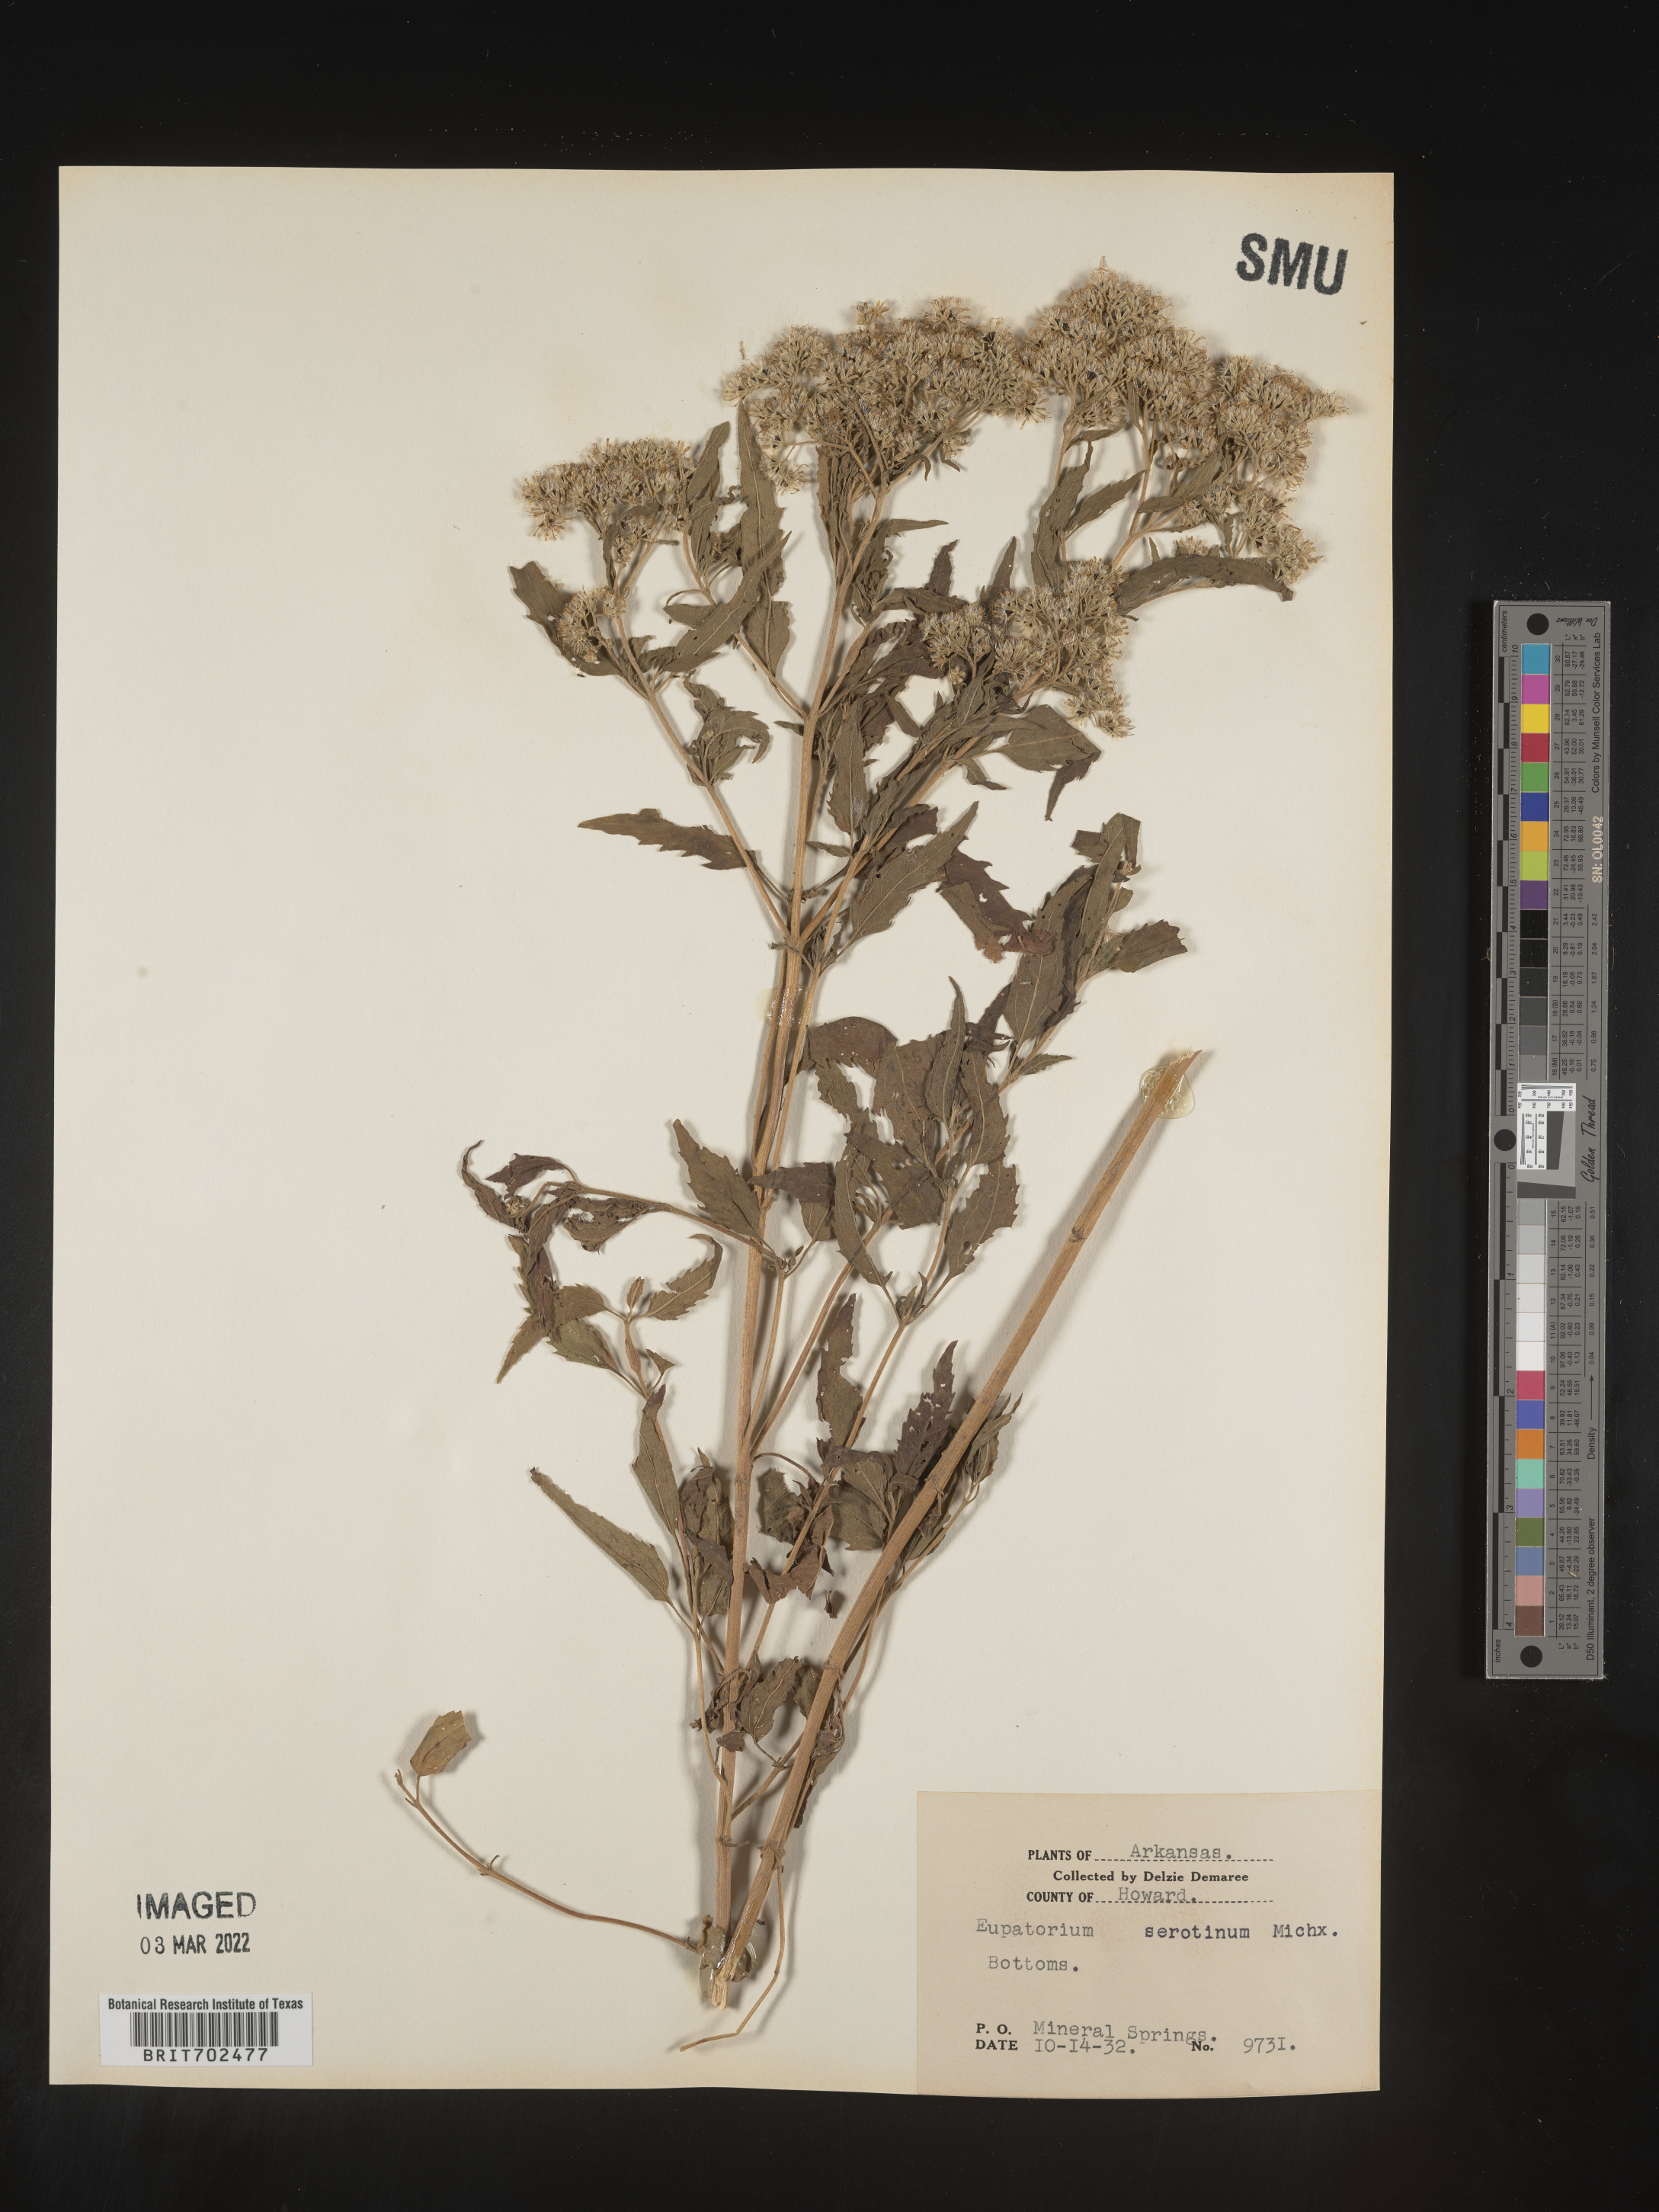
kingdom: Plantae
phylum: Tracheophyta
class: Magnoliopsida
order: Asterales
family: Asteraceae
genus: Eupatorium
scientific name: Eupatorium serotinum
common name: Late boneset
